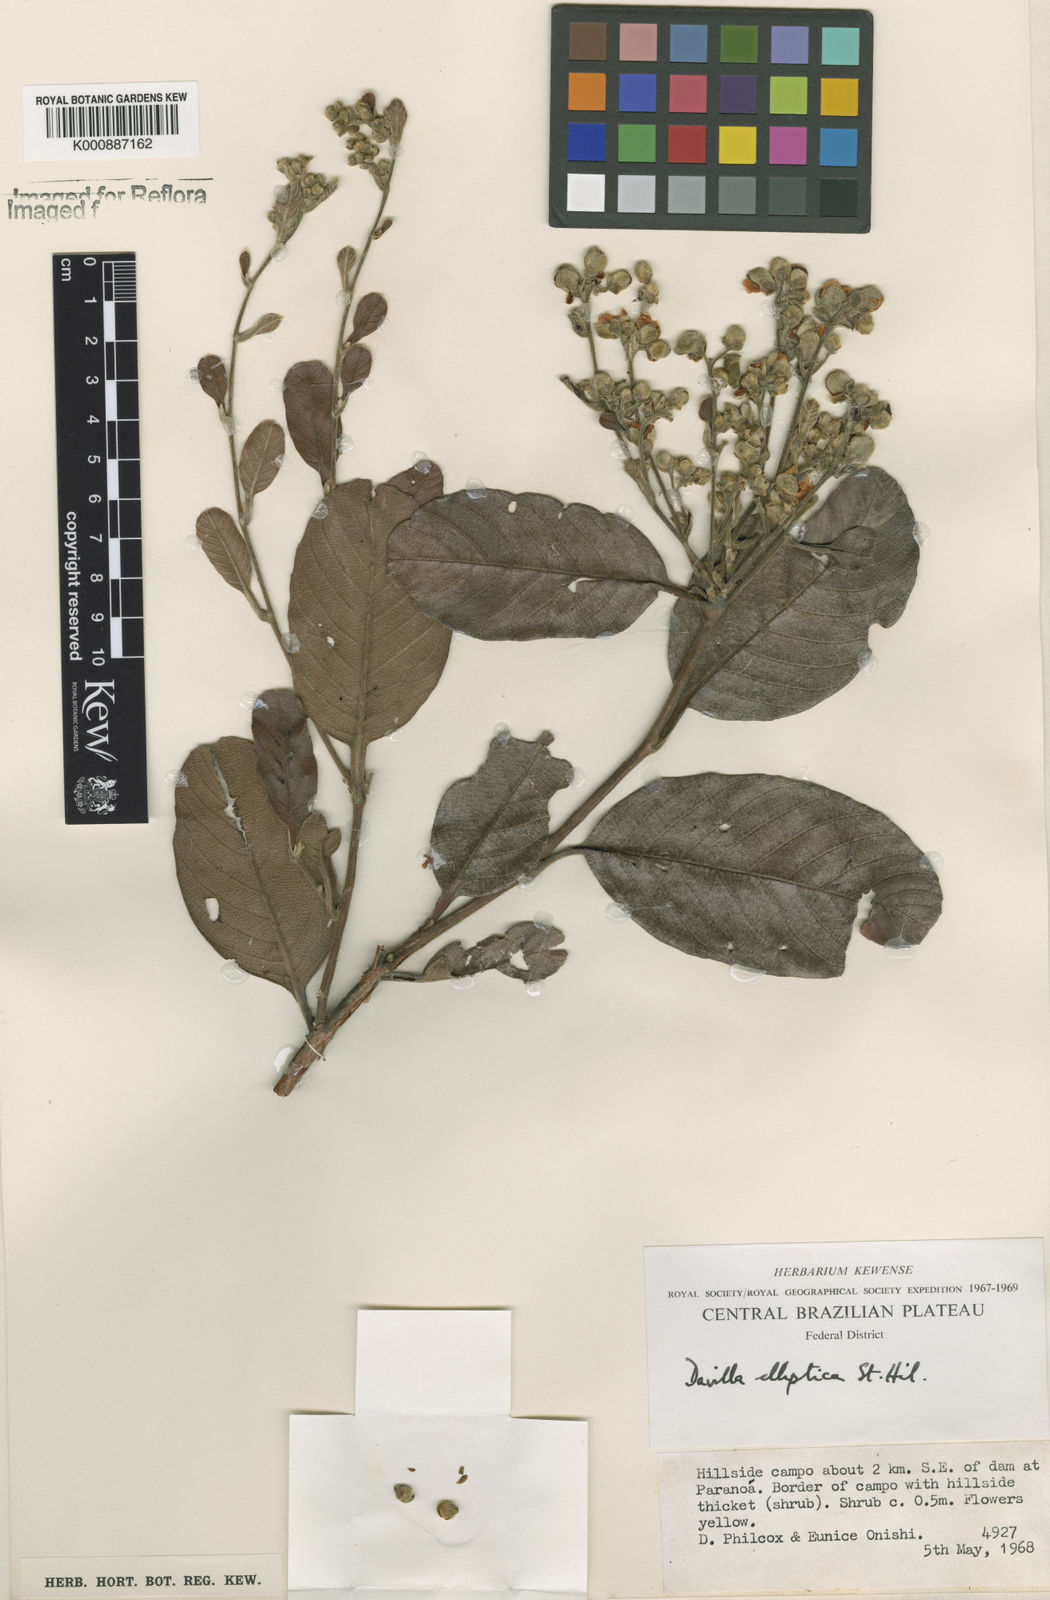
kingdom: Plantae
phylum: Tracheophyta
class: Magnoliopsida
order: Dilleniales
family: Dilleniaceae
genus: Davilla
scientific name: Davilla elliptica
